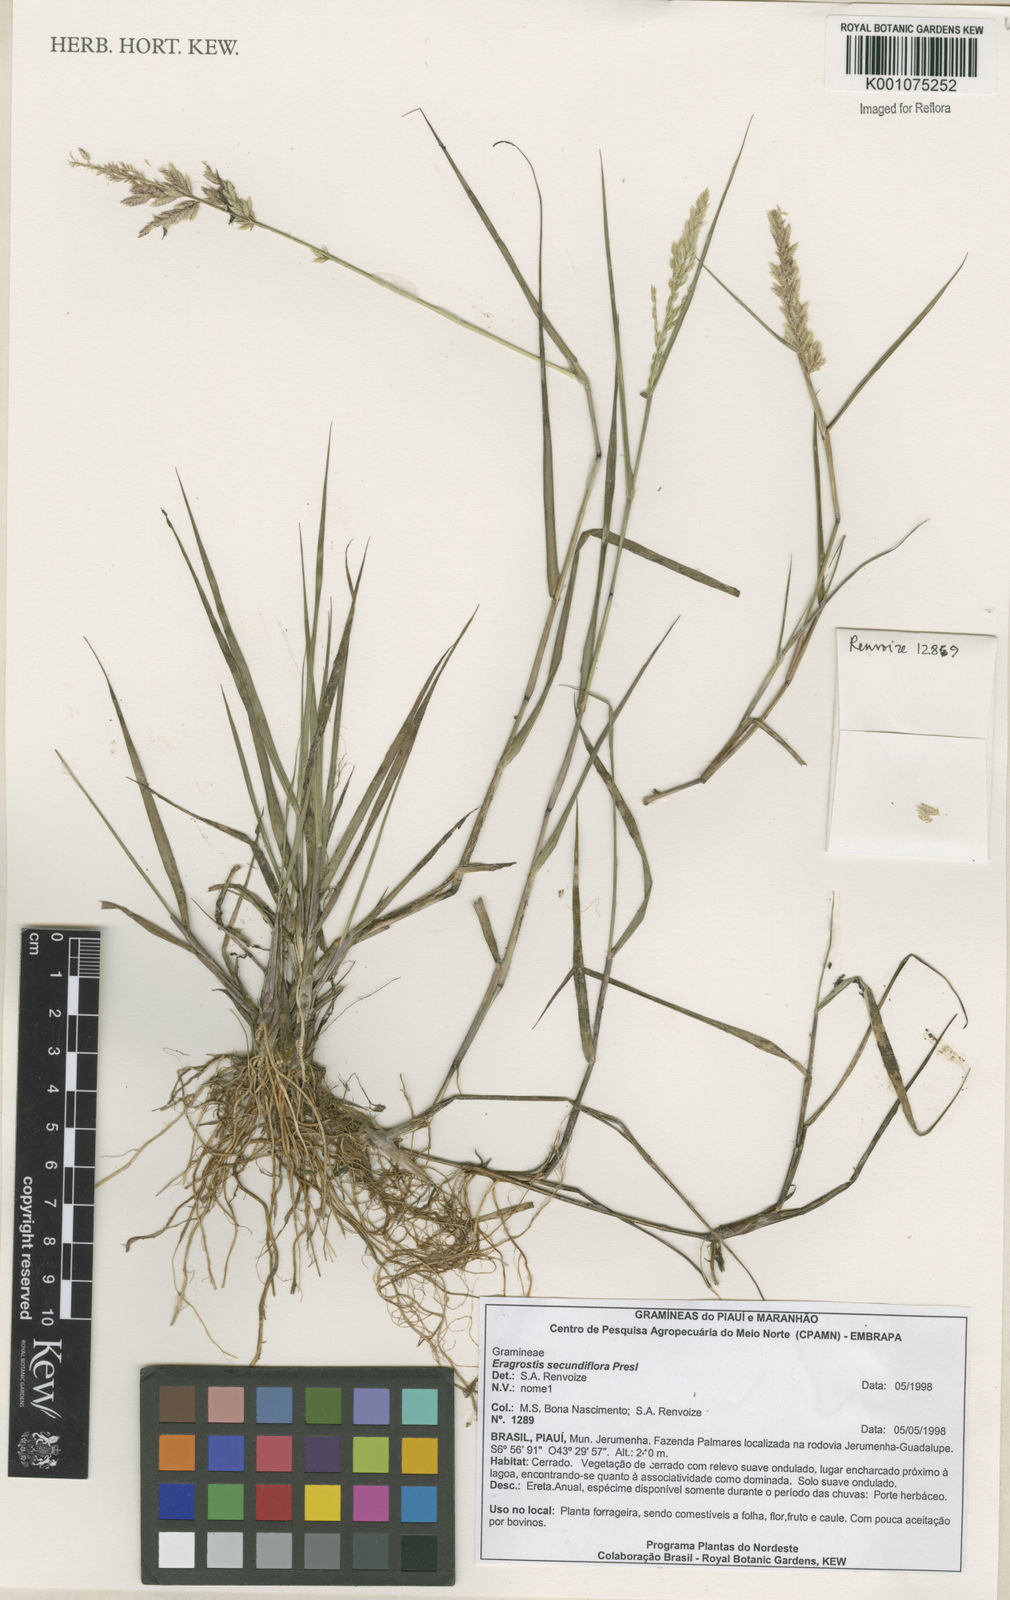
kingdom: Plantae
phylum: Tracheophyta
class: Liliopsida
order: Poales
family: Poaceae
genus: Eragrostis
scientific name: Eragrostis secundiflora
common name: Red love grass
